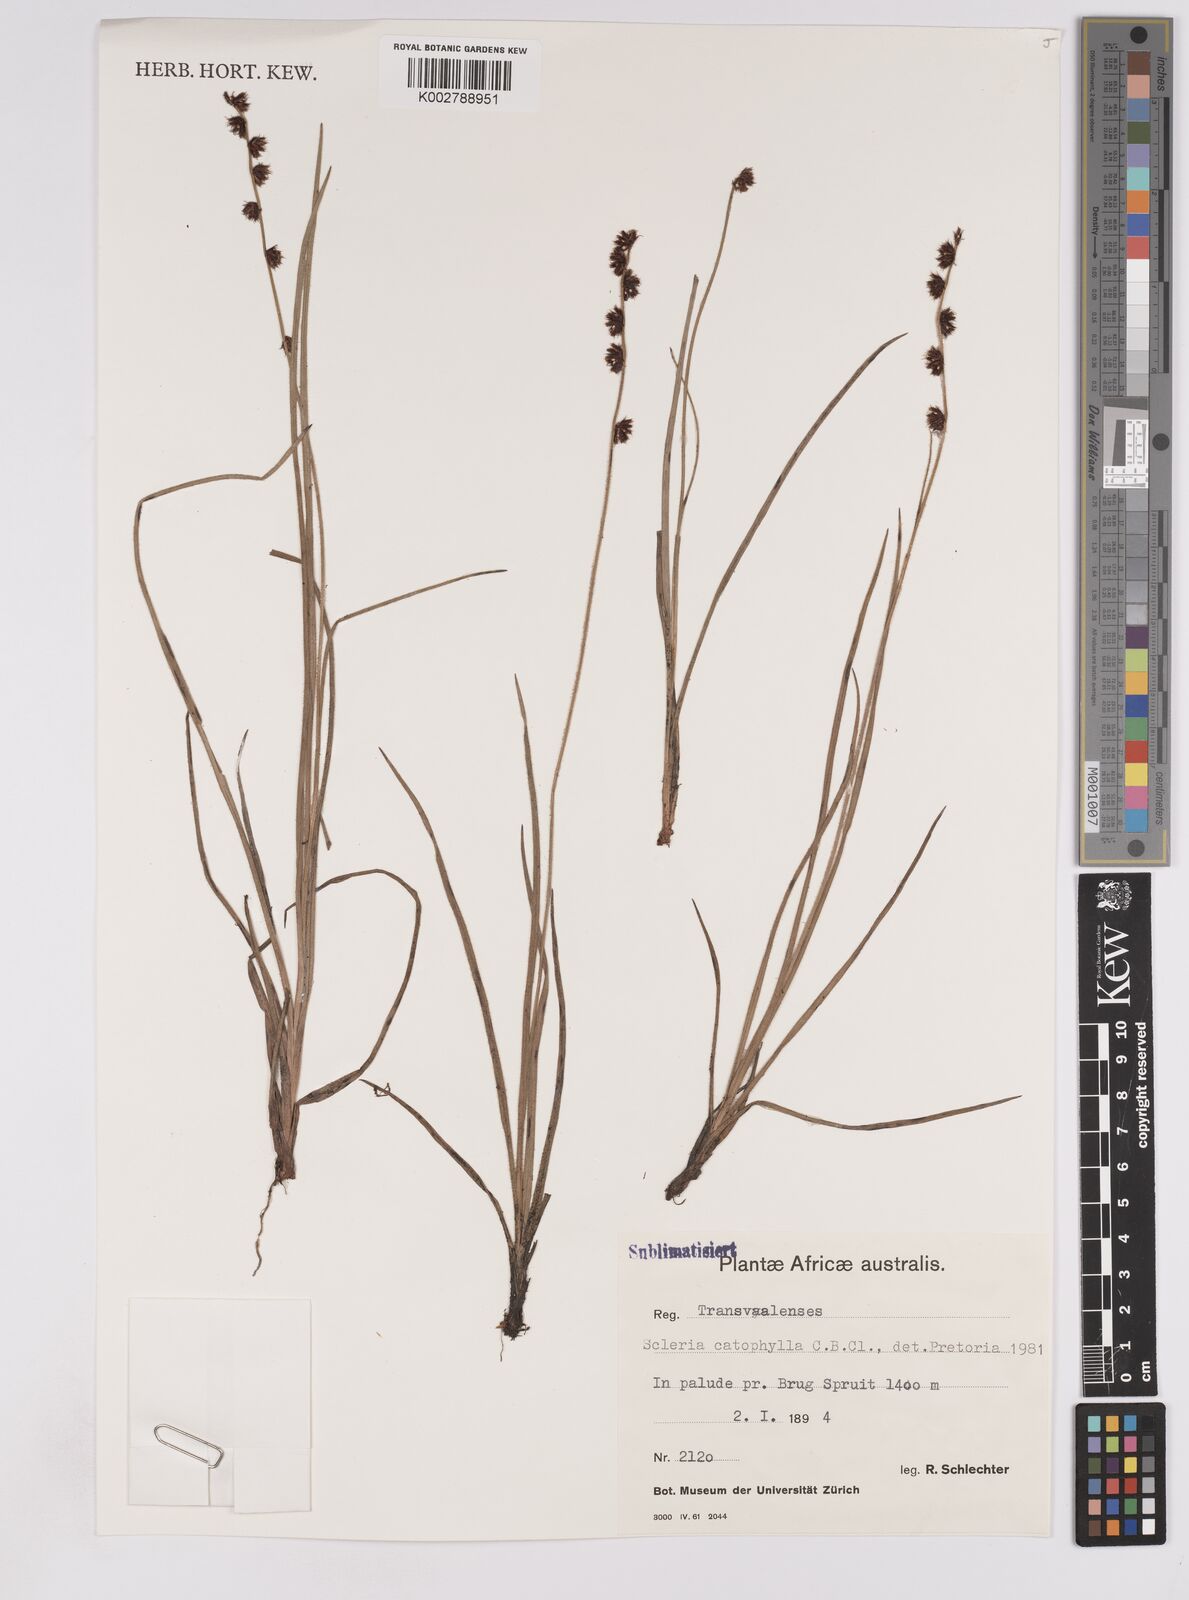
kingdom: Plantae
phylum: Tracheophyta
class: Liliopsida
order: Poales
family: Cyperaceae
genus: Scleria
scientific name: Scleria catophylla
